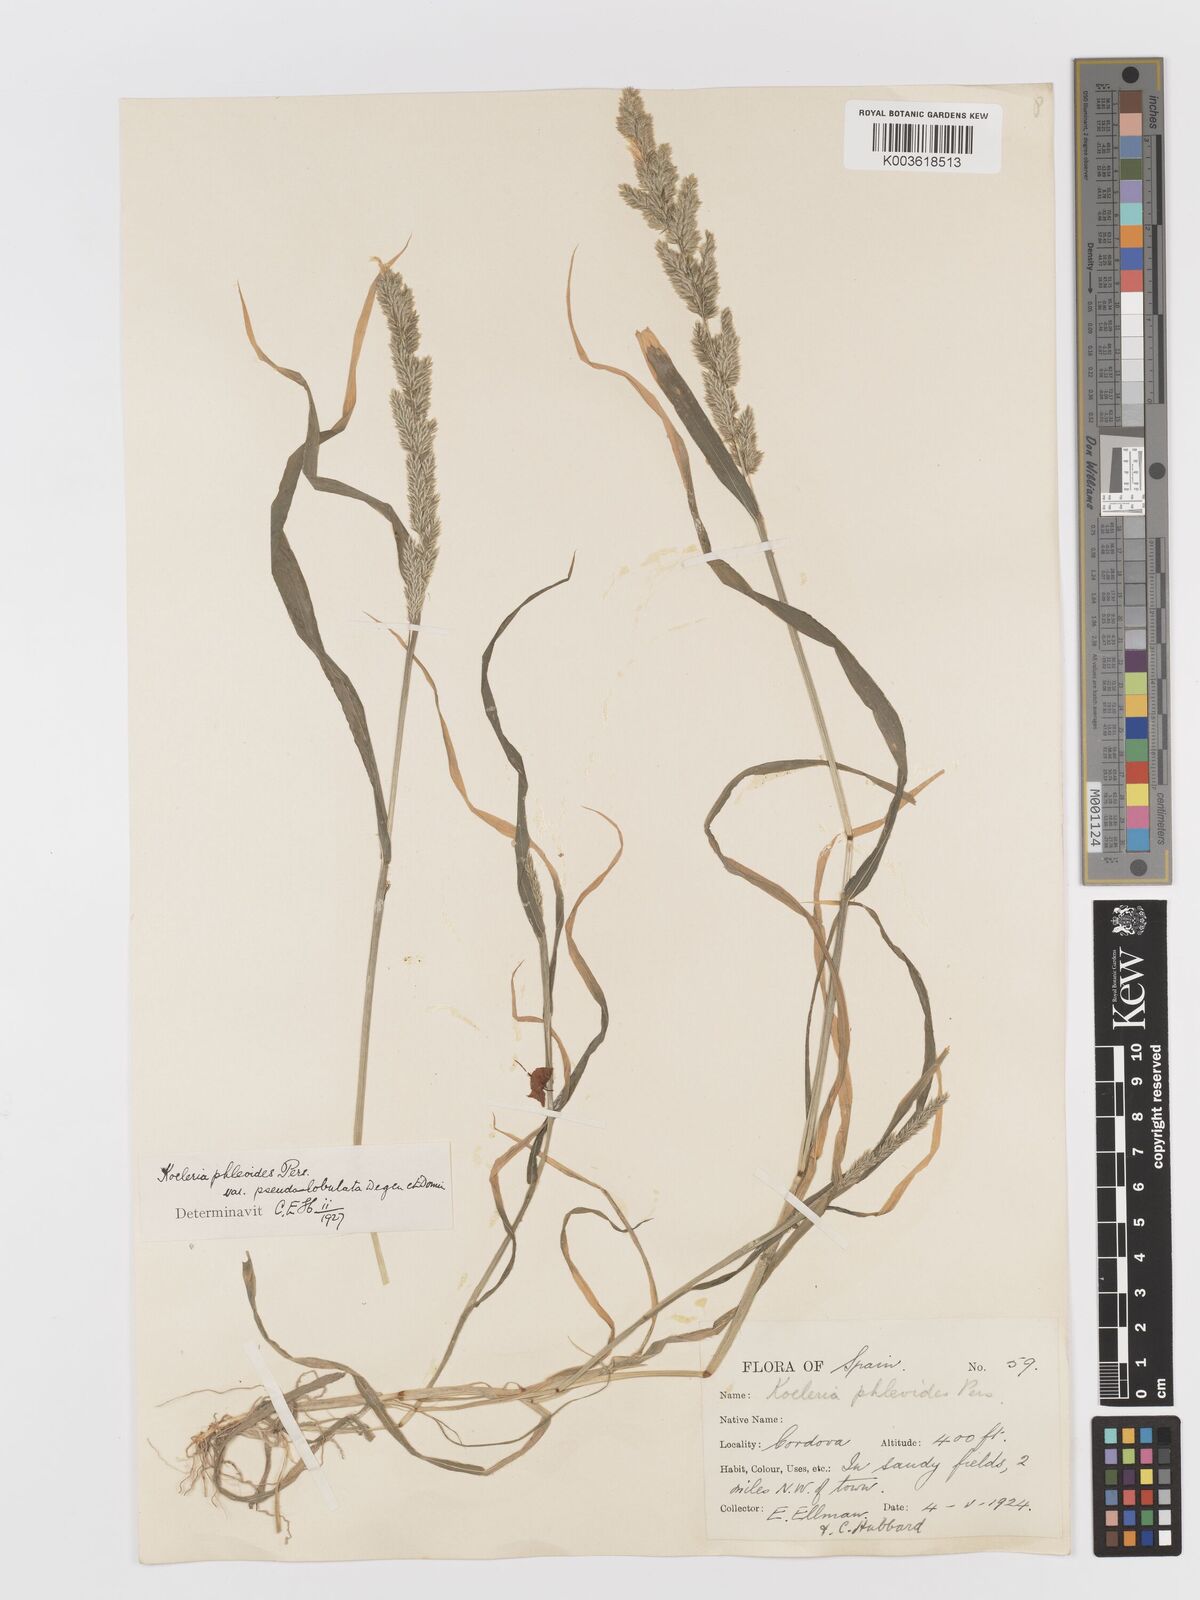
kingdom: Plantae
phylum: Tracheophyta
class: Liliopsida
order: Poales
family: Poaceae
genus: Rostraria
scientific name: Rostraria cristata
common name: Mediterranean hair-grass
